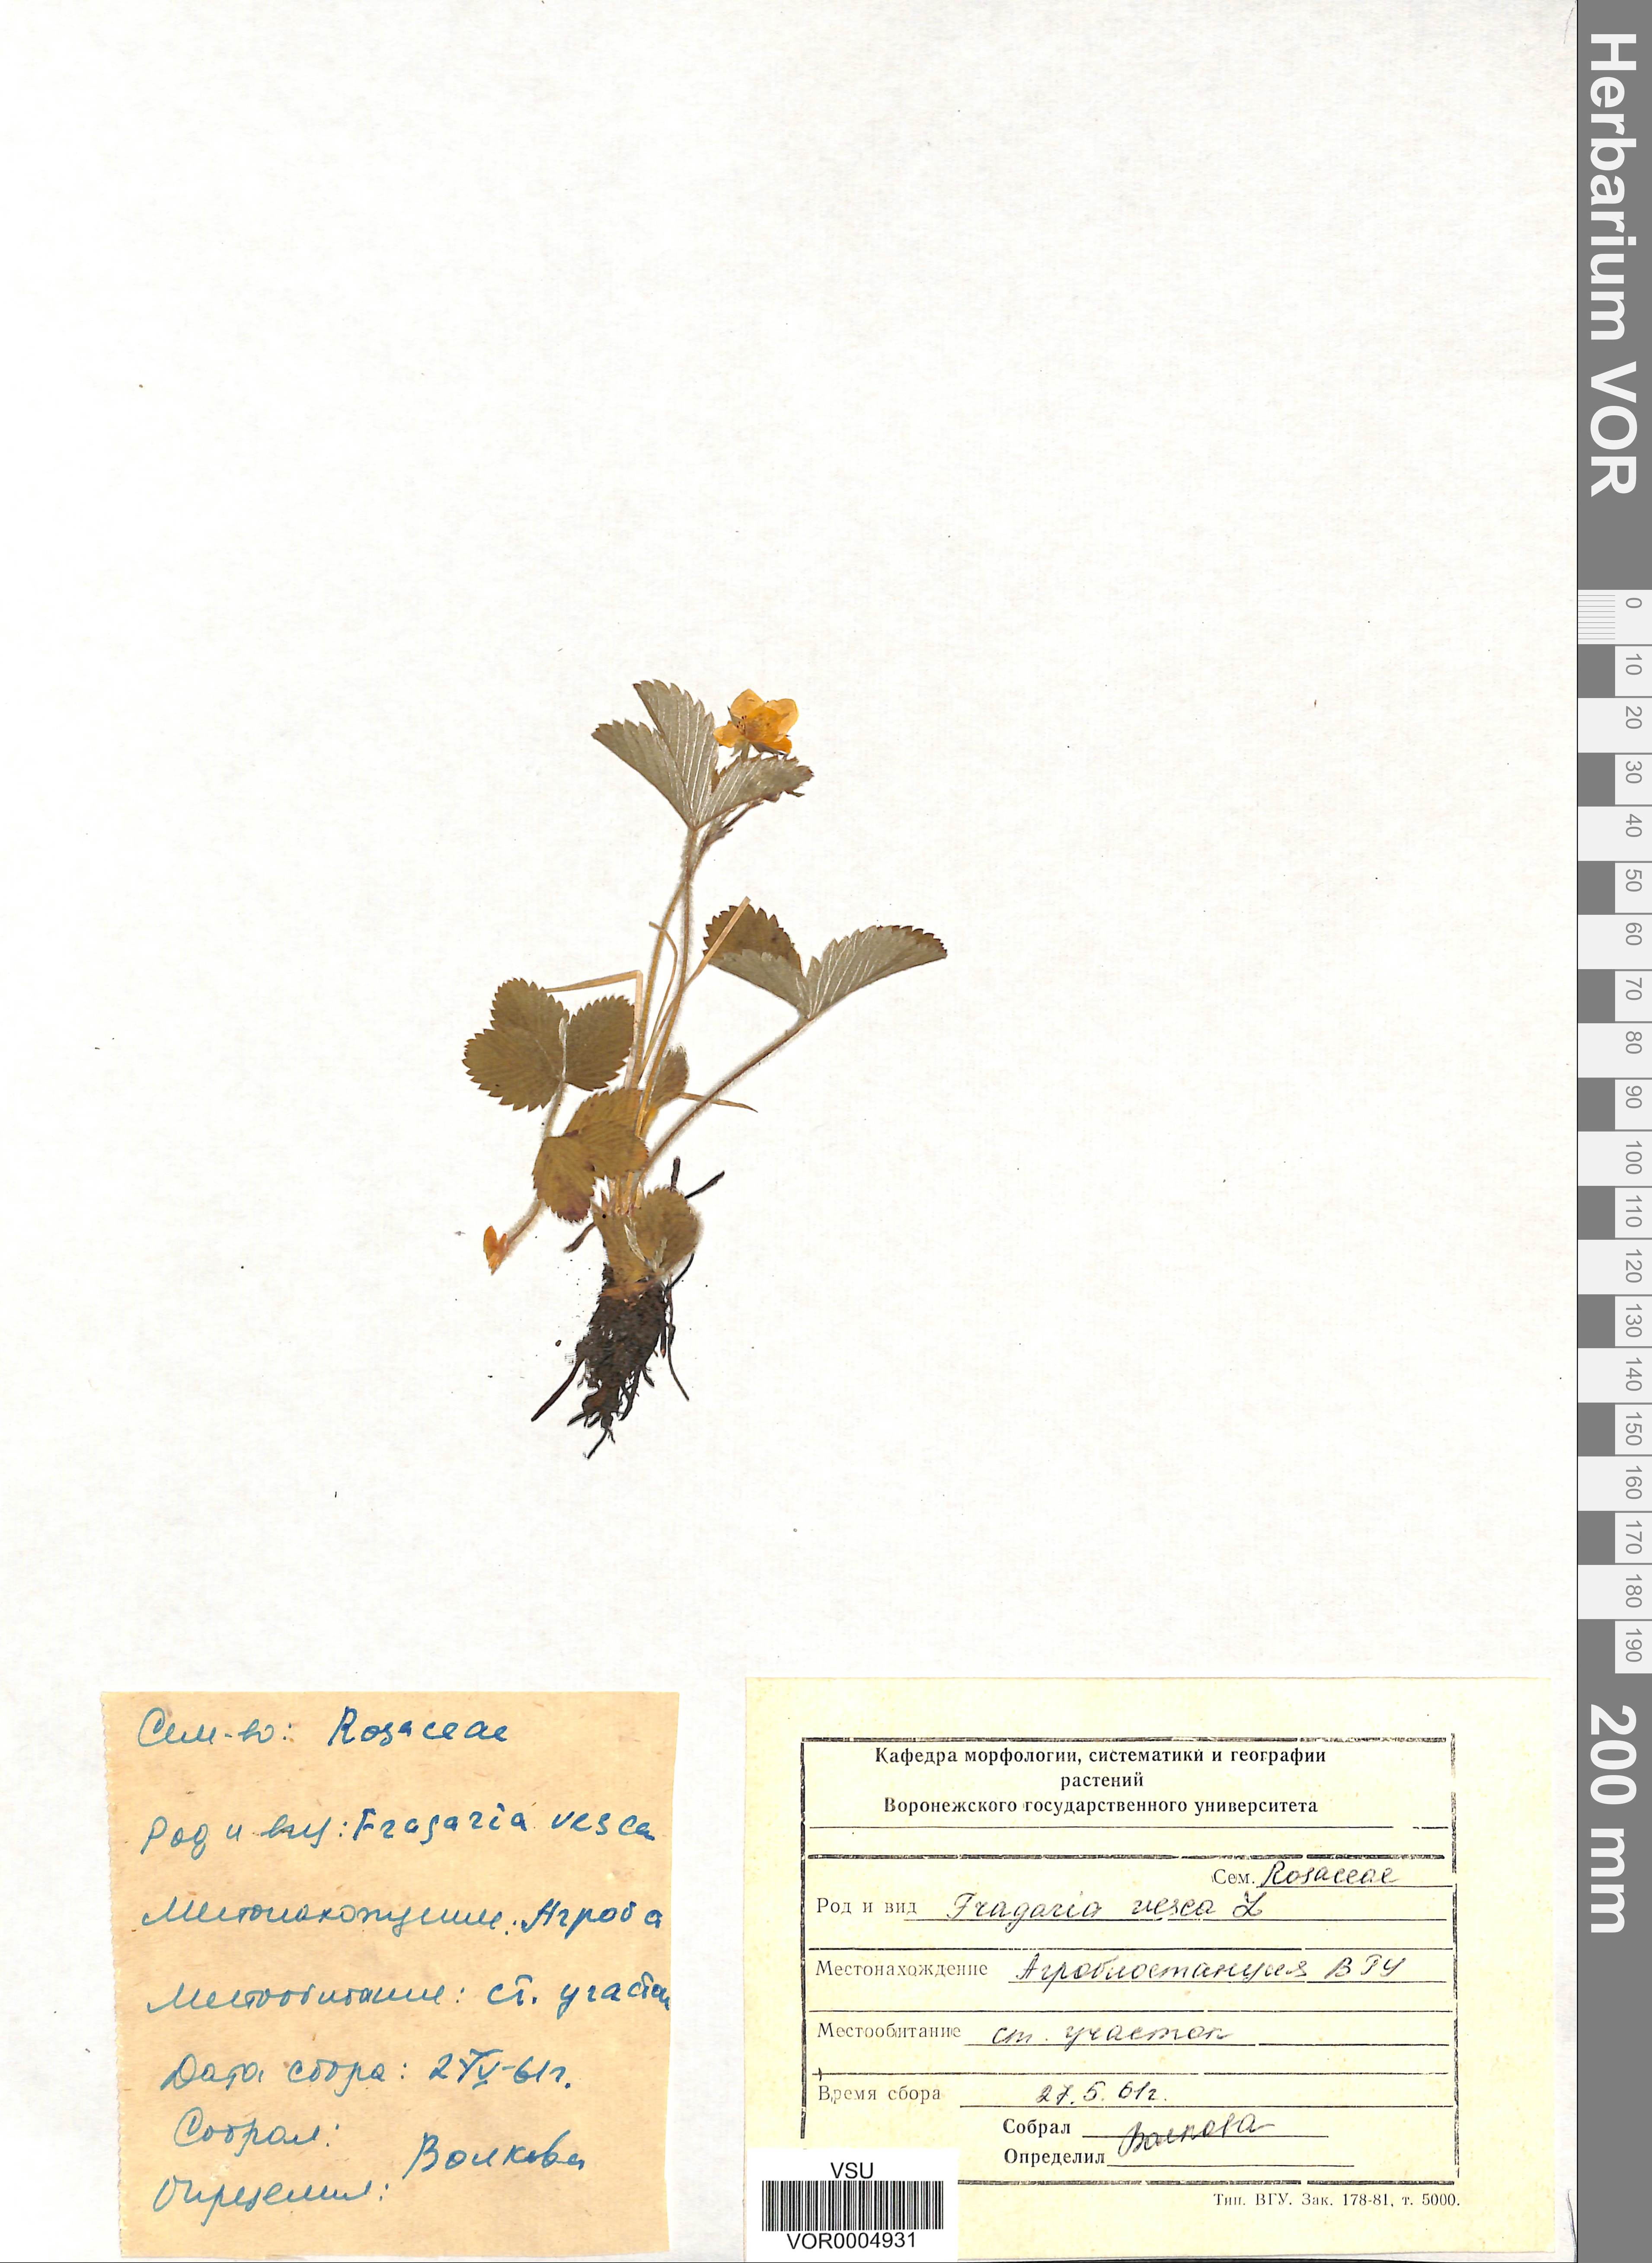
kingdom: Plantae
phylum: Tracheophyta
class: Magnoliopsida
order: Rosales
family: Rosaceae
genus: Fragaria
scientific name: Fragaria moschata
